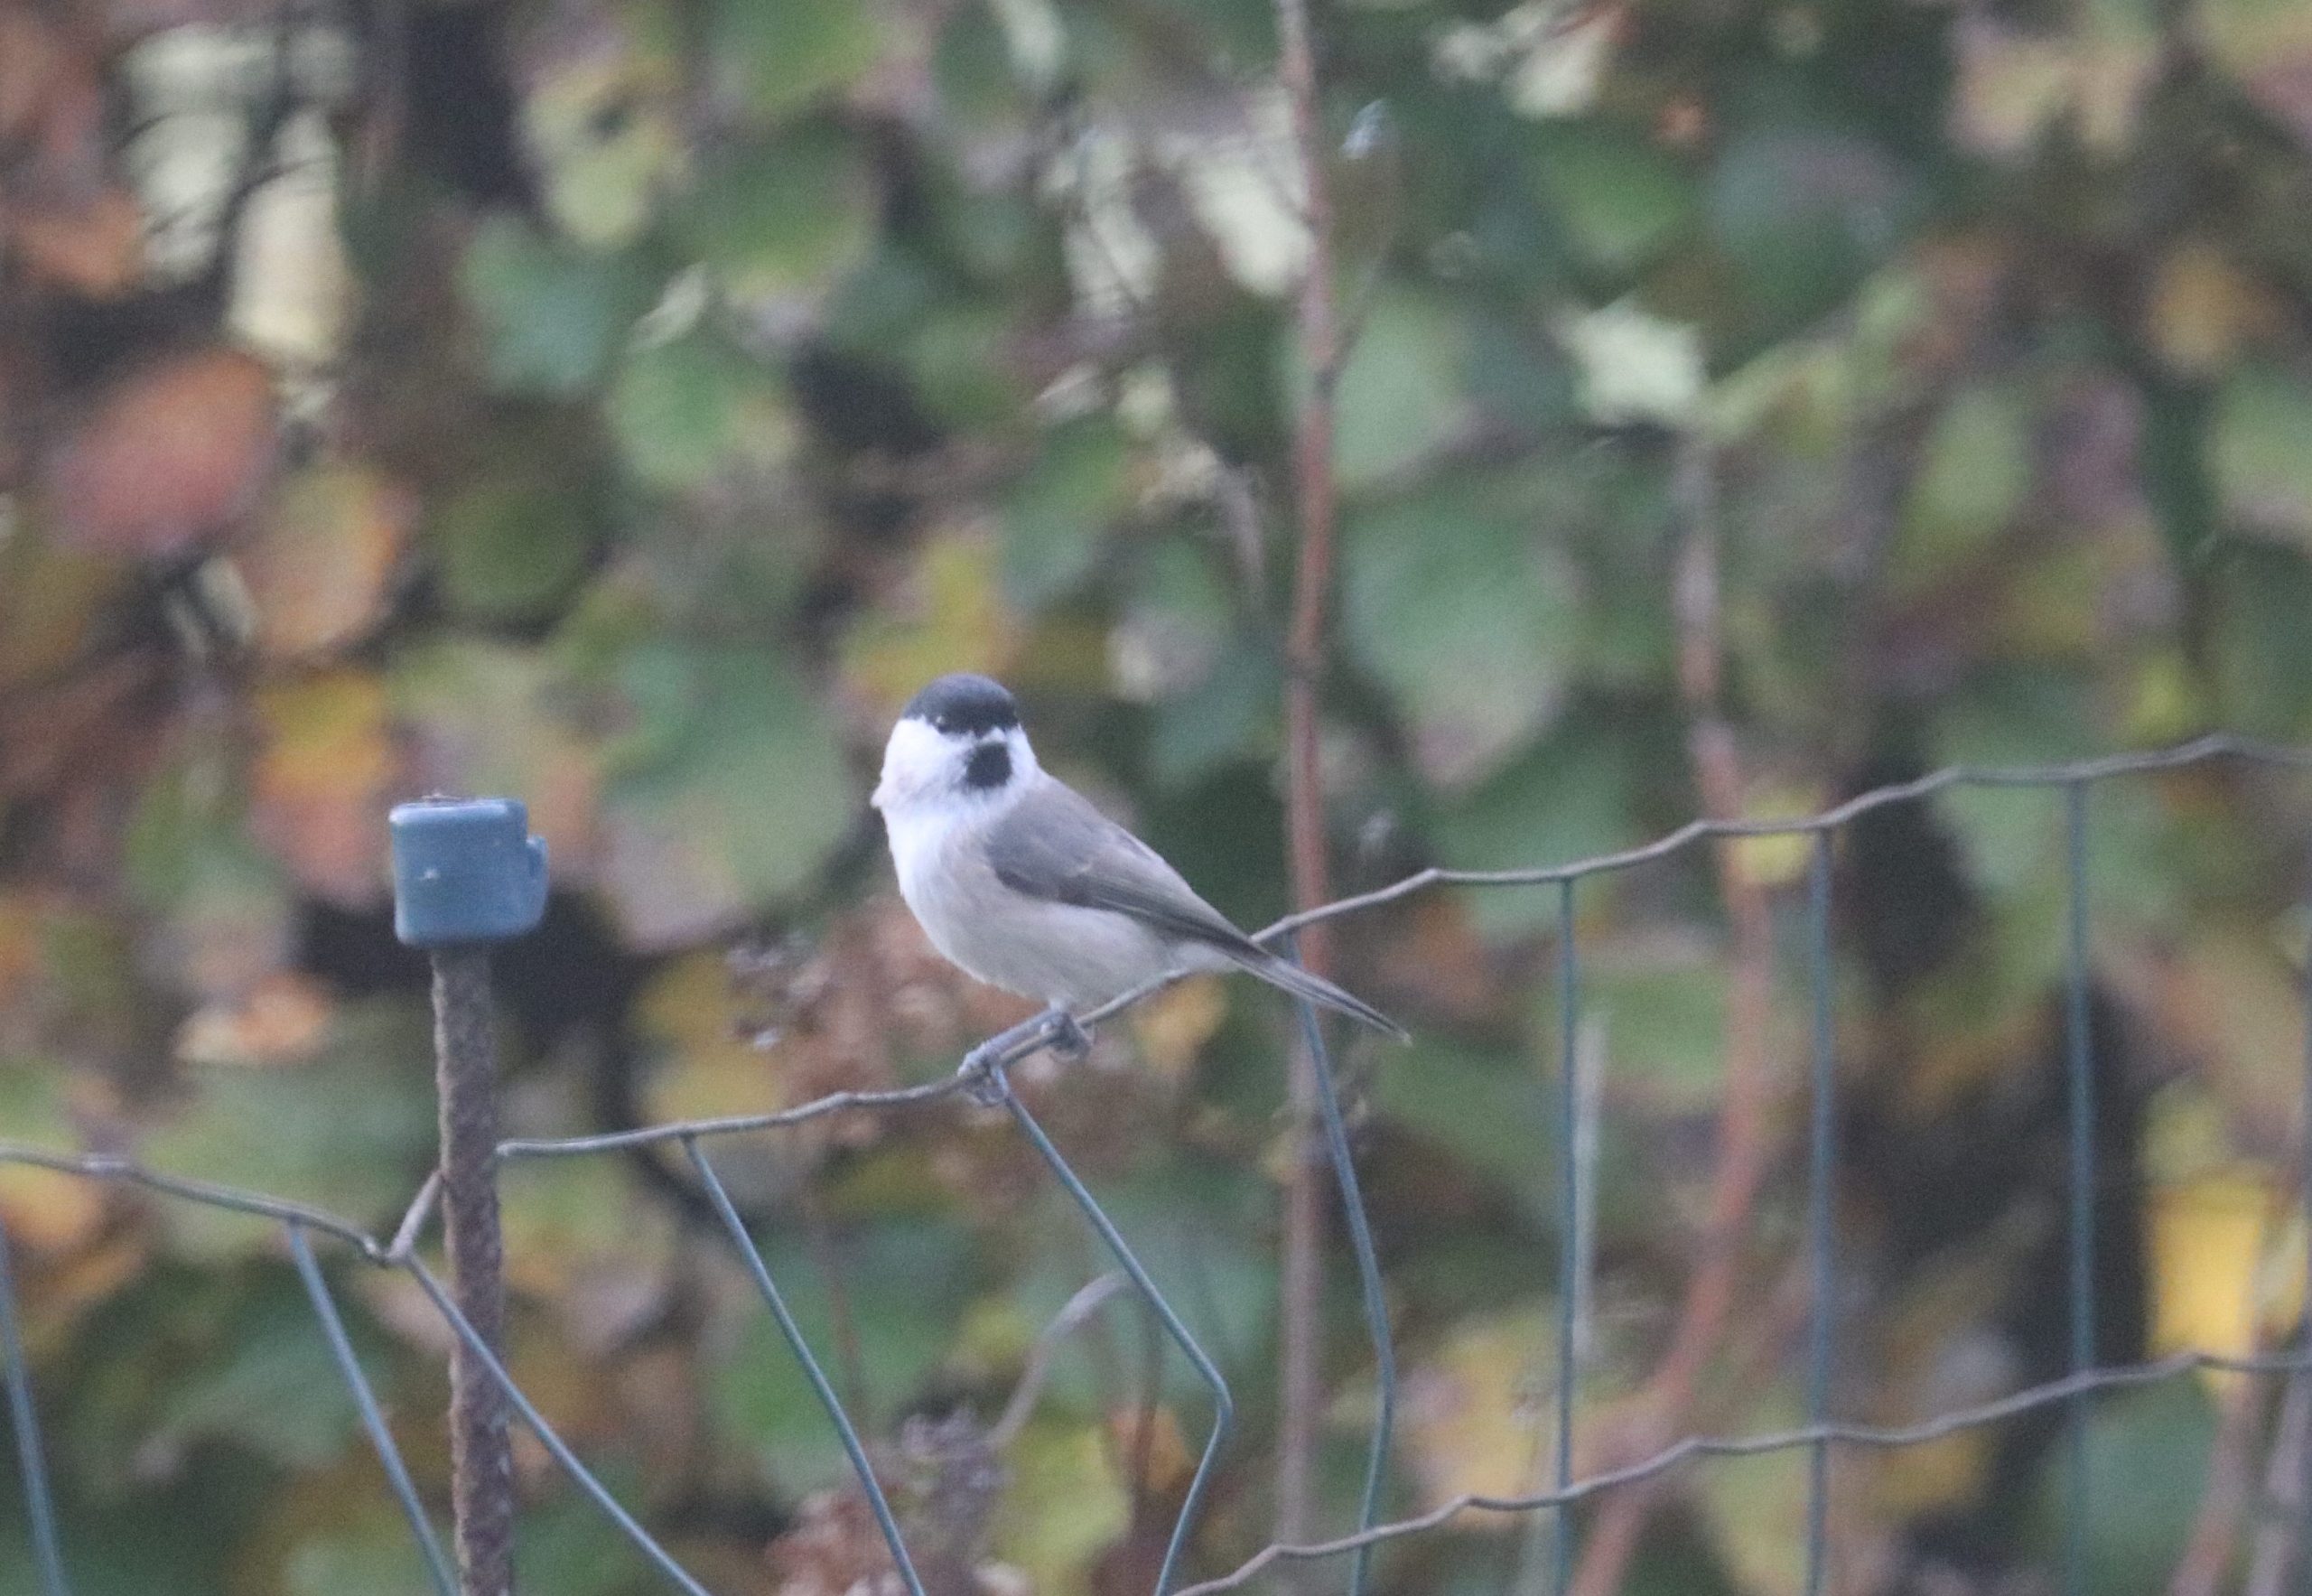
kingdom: Animalia
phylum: Chordata
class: Aves
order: Passeriformes
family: Paridae
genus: Poecile
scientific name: Poecile palustris
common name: Sumpmejse
